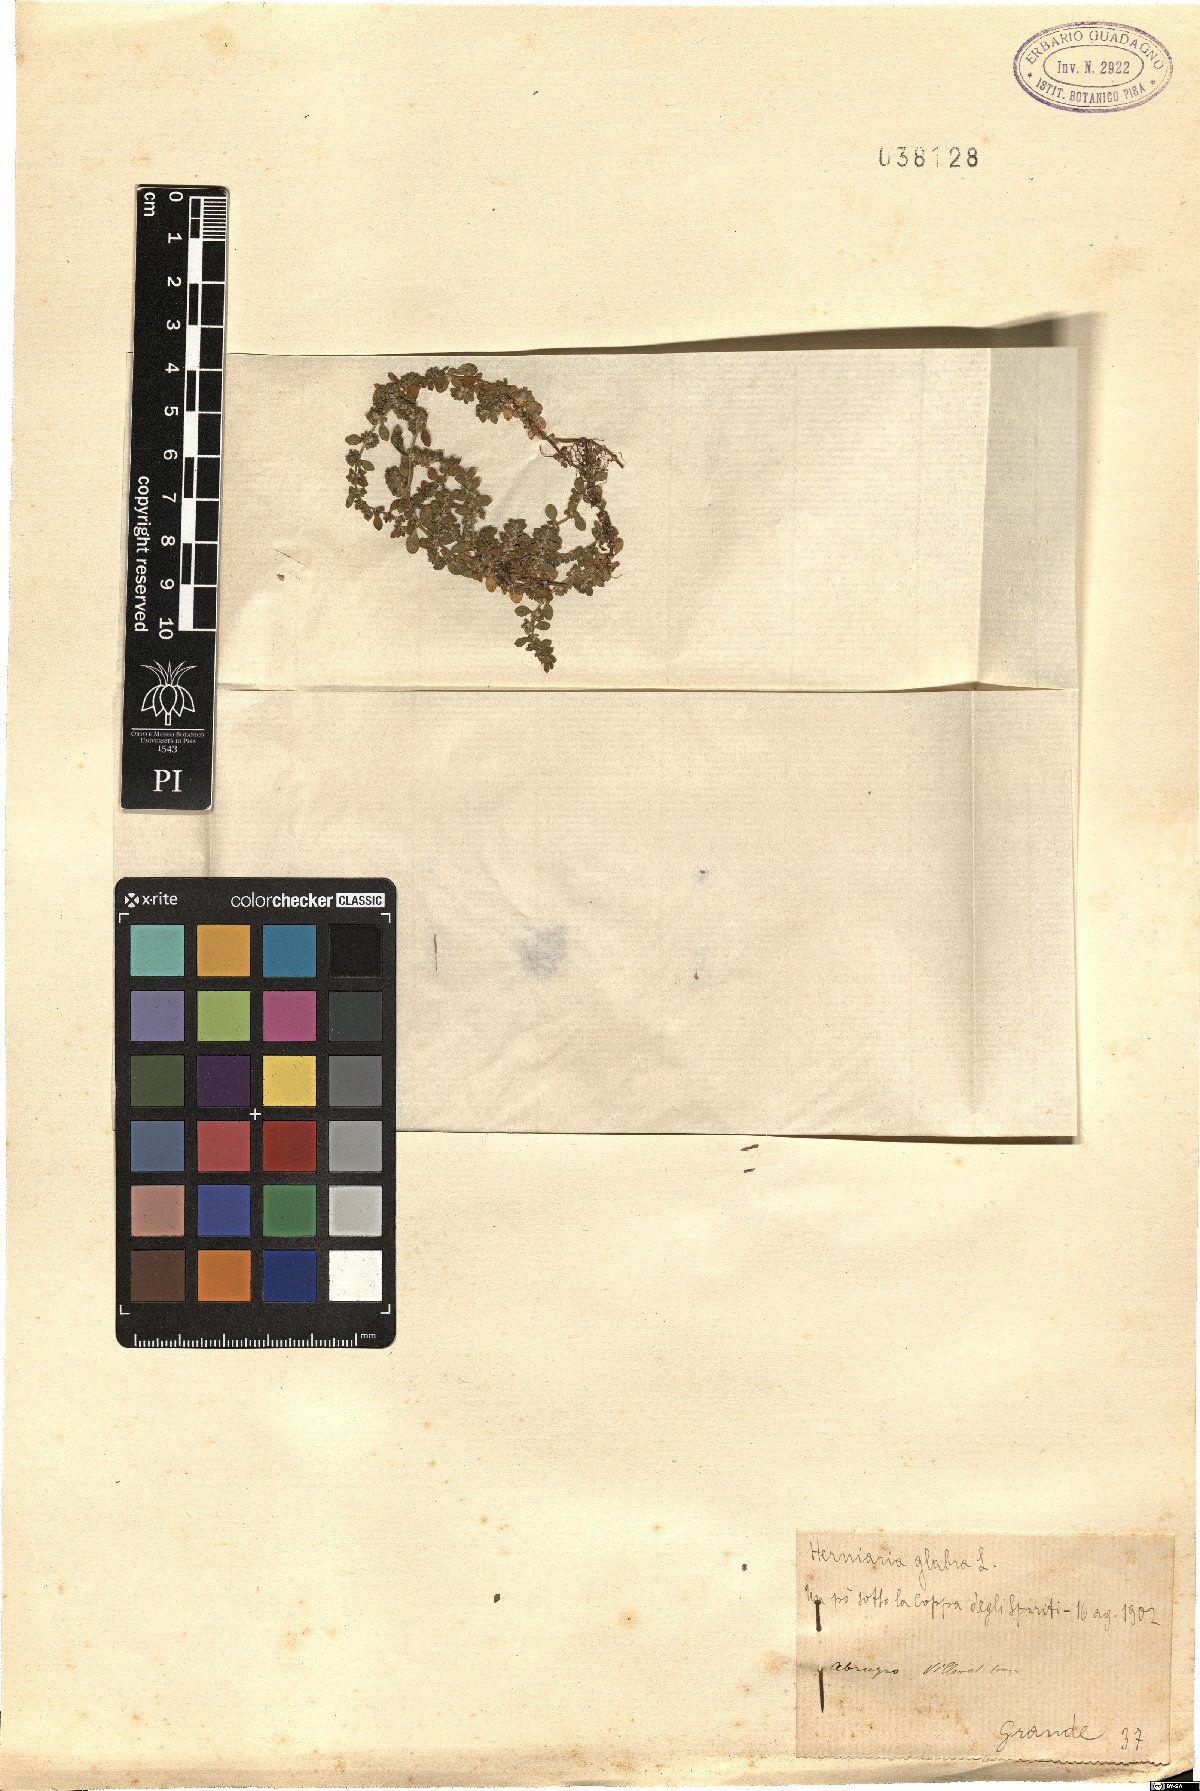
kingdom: Plantae
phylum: Tracheophyta
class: Magnoliopsida
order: Caryophyllales
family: Caryophyllaceae
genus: Herniaria
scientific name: Herniaria glabra
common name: Smooth rupturewort
